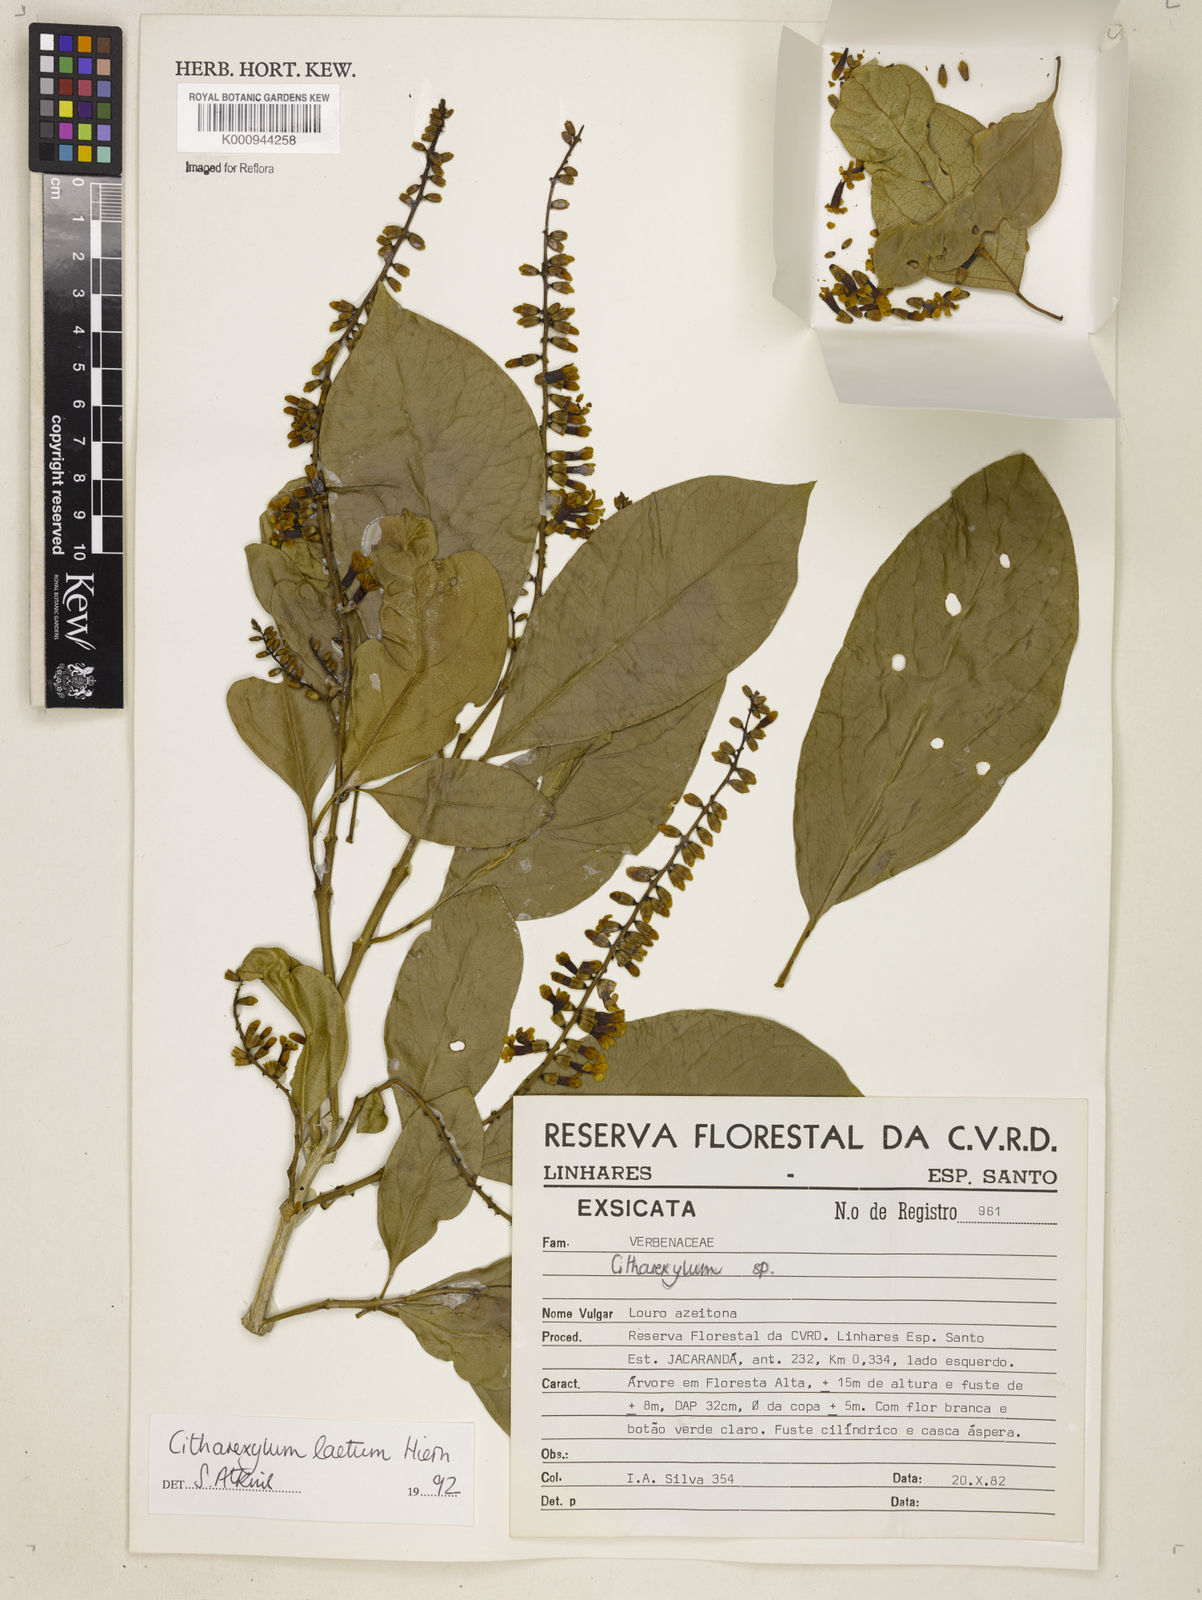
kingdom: Plantae
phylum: Tracheophyta
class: Magnoliopsida
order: Lamiales
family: Verbenaceae
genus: Citharexylum
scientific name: Citharexylum myrianthum
